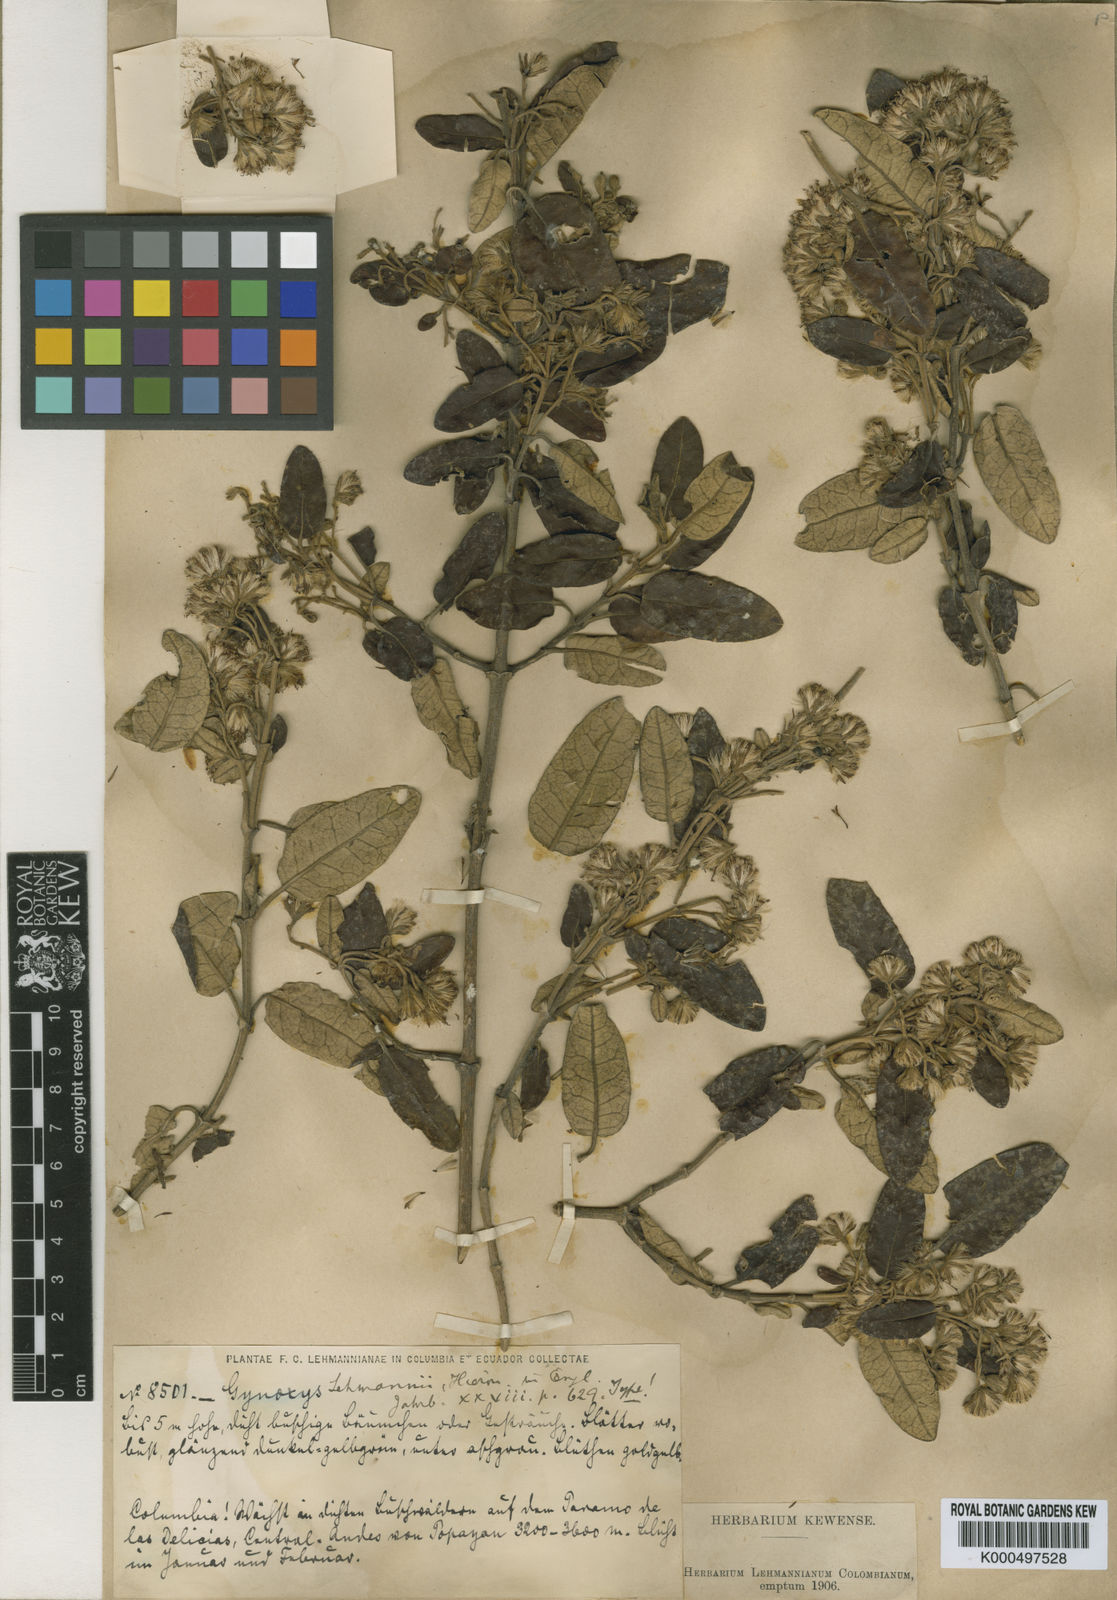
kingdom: Plantae
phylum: Tracheophyta
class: Magnoliopsida
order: Asterales
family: Asteraceae
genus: Gynoxys
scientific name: Gynoxys lehmannii
